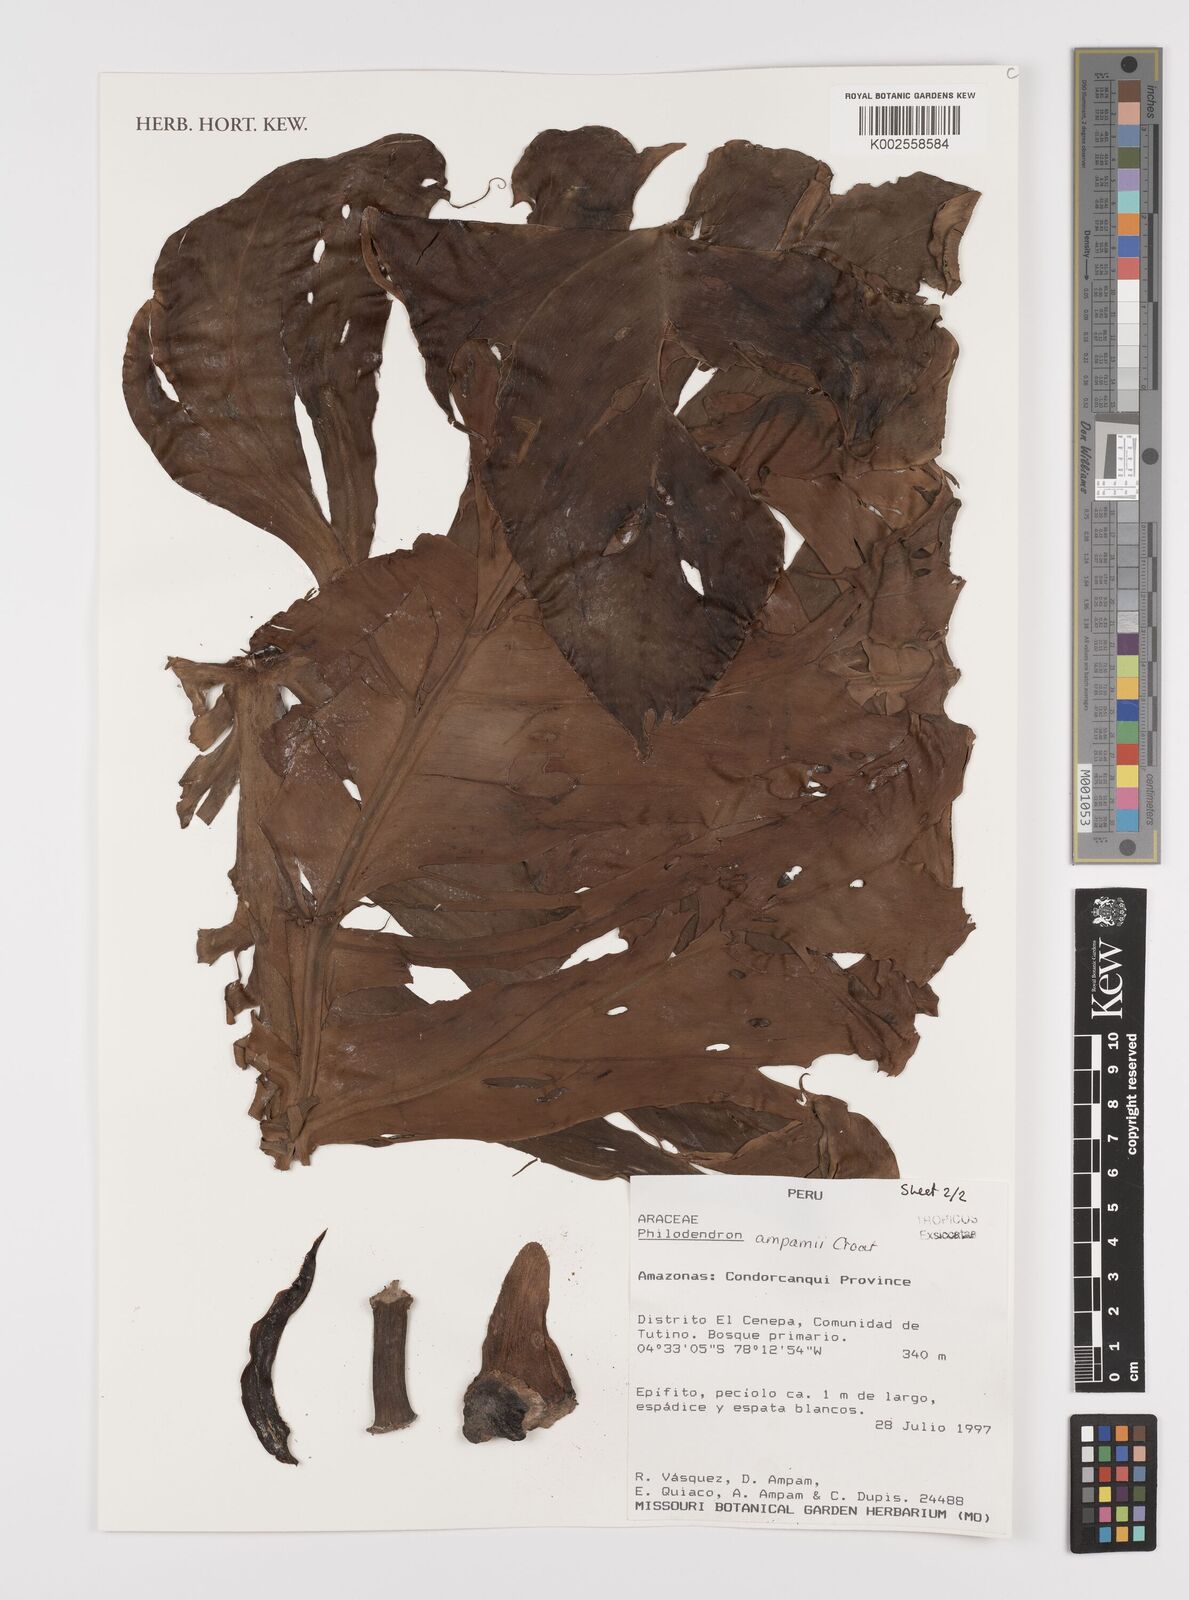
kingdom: Plantae
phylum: Tracheophyta
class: Liliopsida
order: Alismatales
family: Araceae
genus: Philodendron
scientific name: Philodendron ampamii
